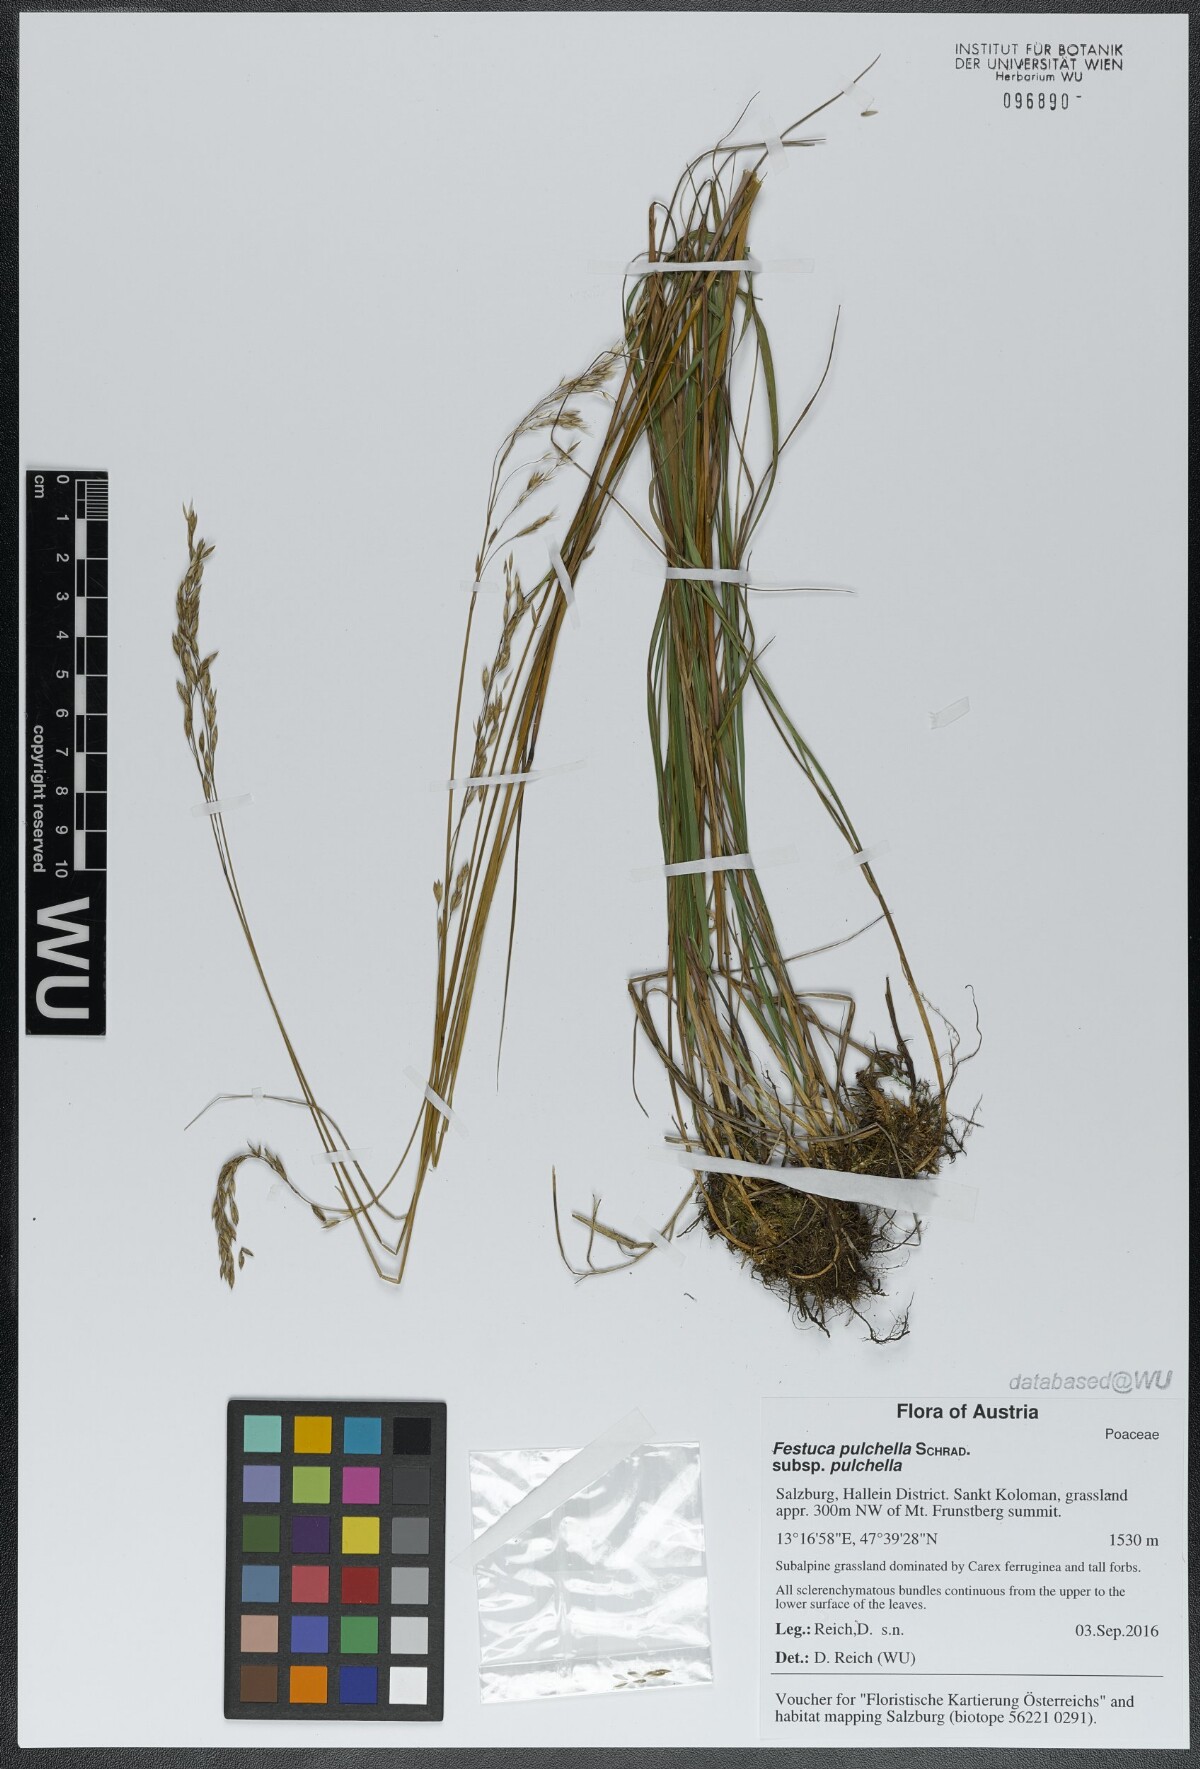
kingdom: Plantae
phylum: Tracheophyta
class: Liliopsida
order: Poales
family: Poaceae
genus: Festuca
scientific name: Festuca pulchella
